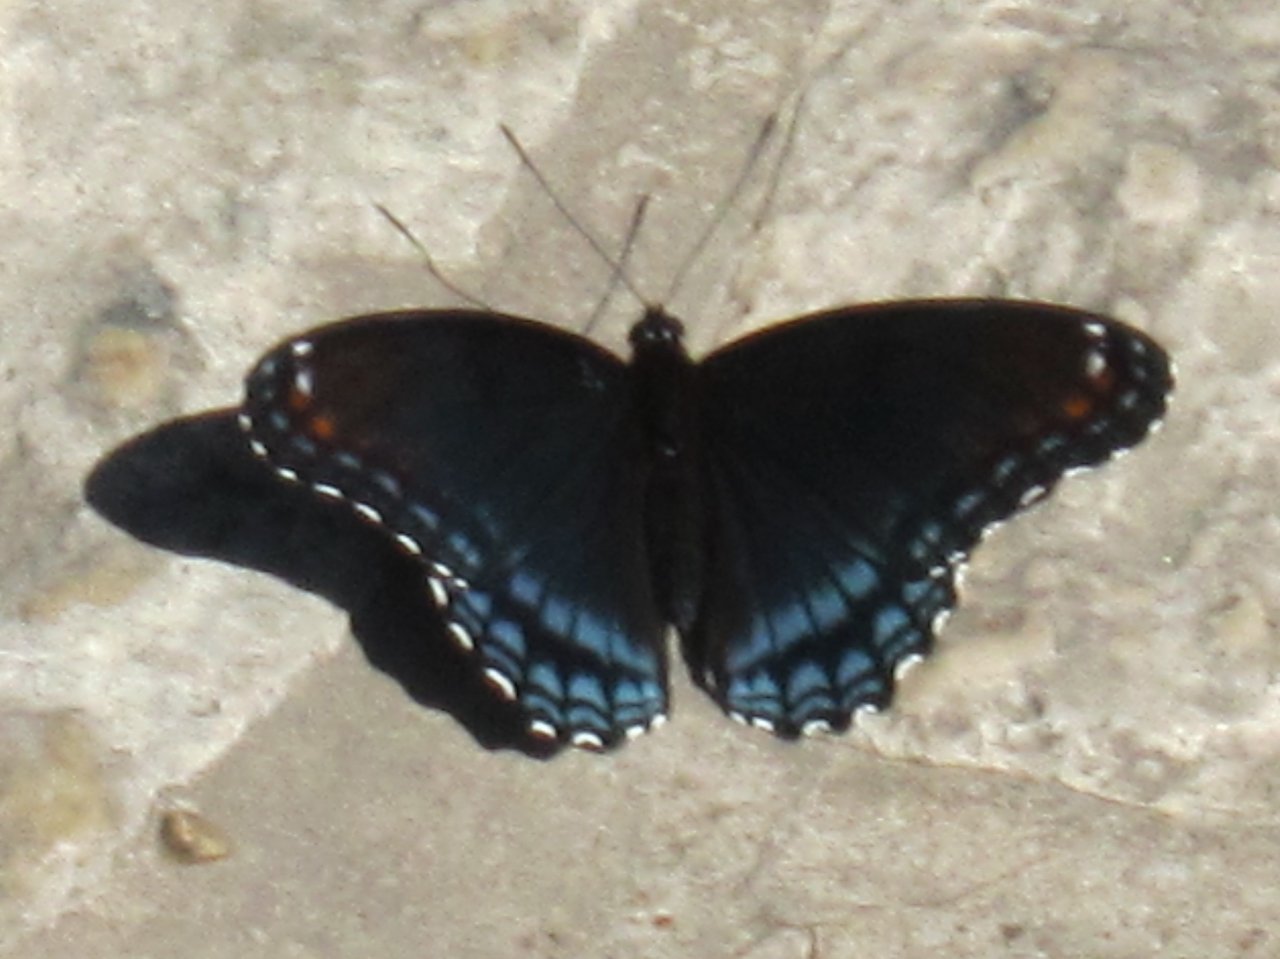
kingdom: Animalia
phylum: Arthropoda
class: Insecta
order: Lepidoptera
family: Nymphalidae
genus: Limenitis
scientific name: Limenitis astyanax
